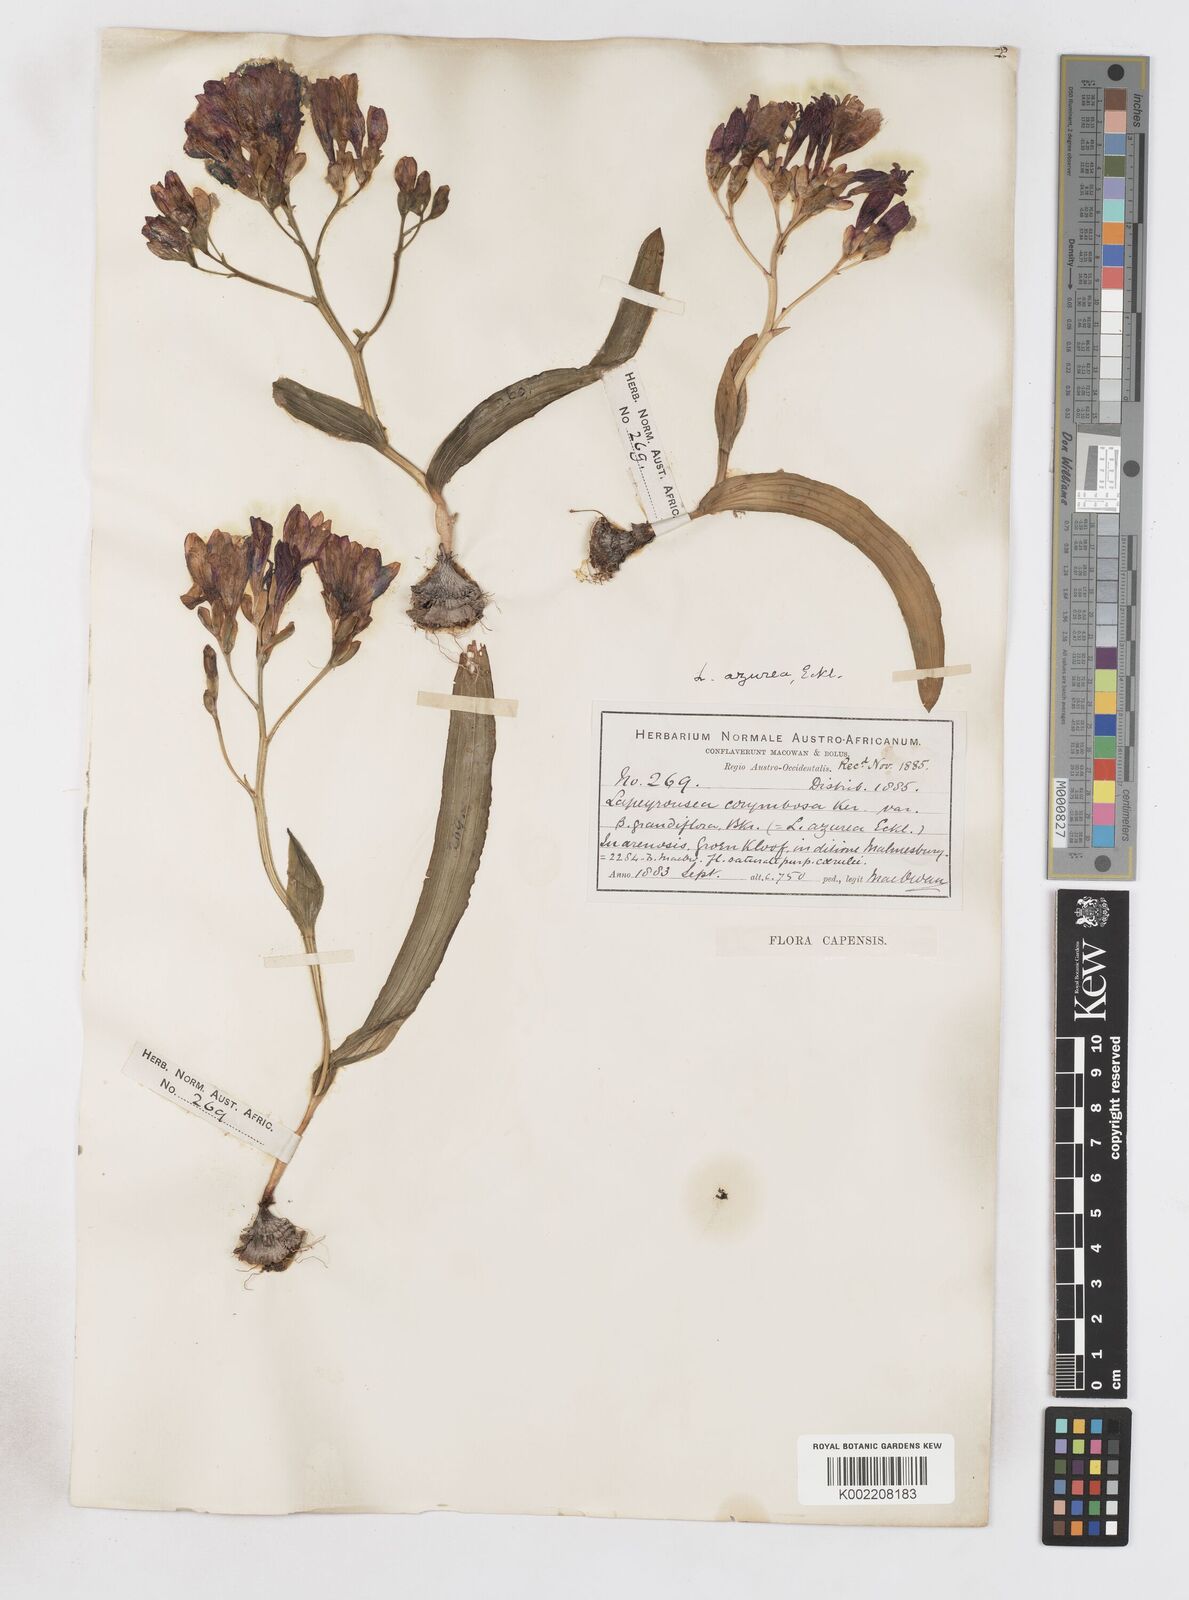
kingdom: Plantae
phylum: Tracheophyta
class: Liliopsida
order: Asparagales
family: Iridaceae
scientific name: Iridaceae
